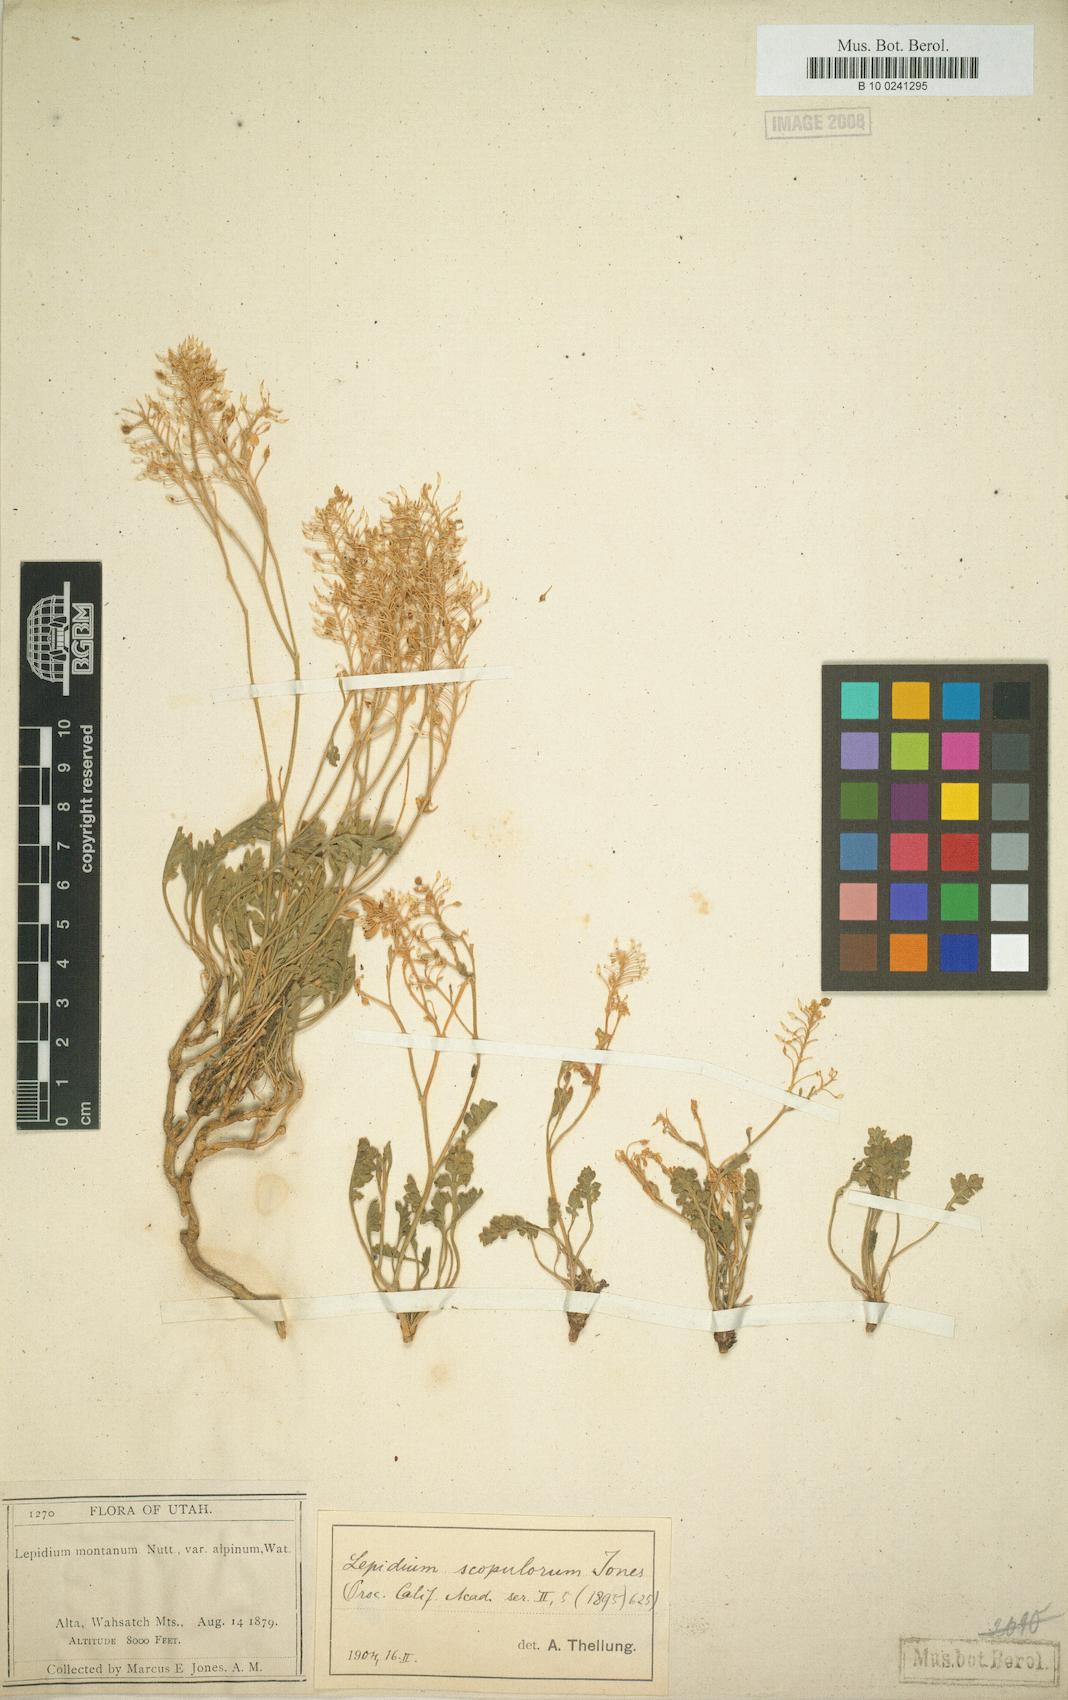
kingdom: Plantae
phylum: Tracheophyta
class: Magnoliopsida
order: Brassicales
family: Brassicaceae
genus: Lepidium
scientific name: Lepidium montanum
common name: Mountain pepperplant
